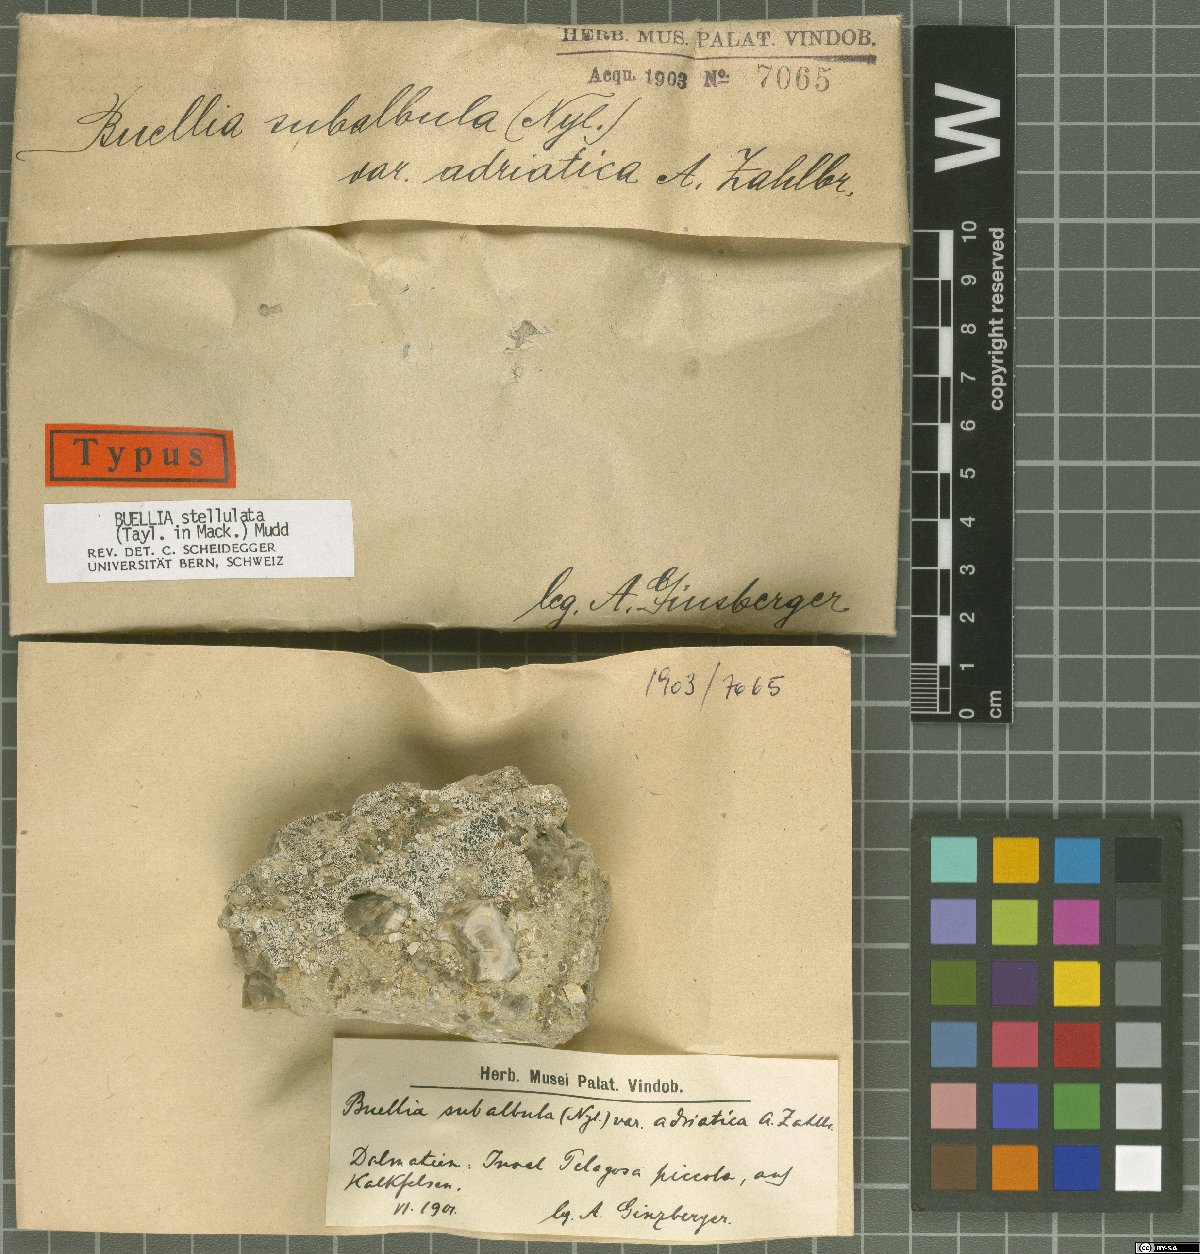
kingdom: Fungi
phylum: Ascomycota
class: Lecanoromycetes
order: Caliciales
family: Caliciaceae
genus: Buellia
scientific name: Buellia subalbula
